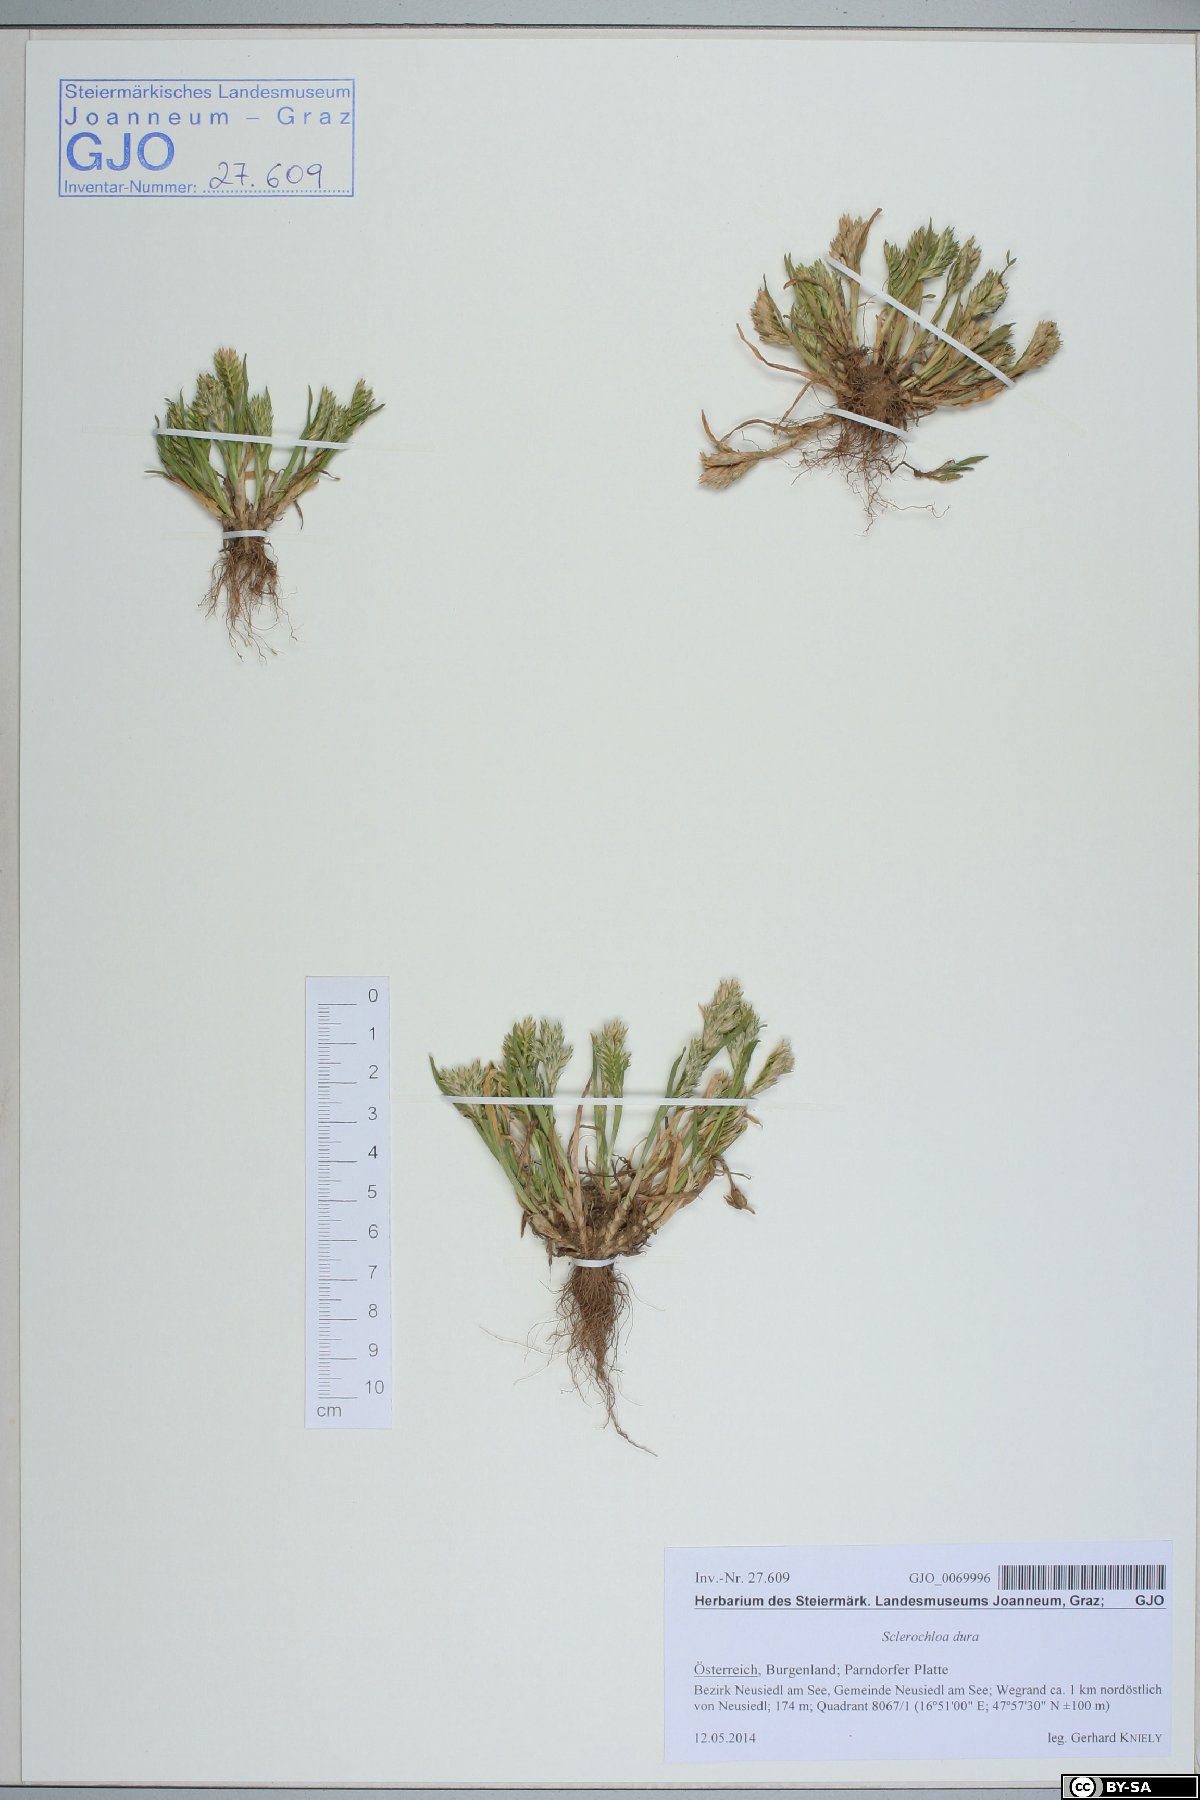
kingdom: Plantae
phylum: Tracheophyta
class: Liliopsida
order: Poales
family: Poaceae
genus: Sclerochloa
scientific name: Sclerochloa dura
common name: Common hardgrass
